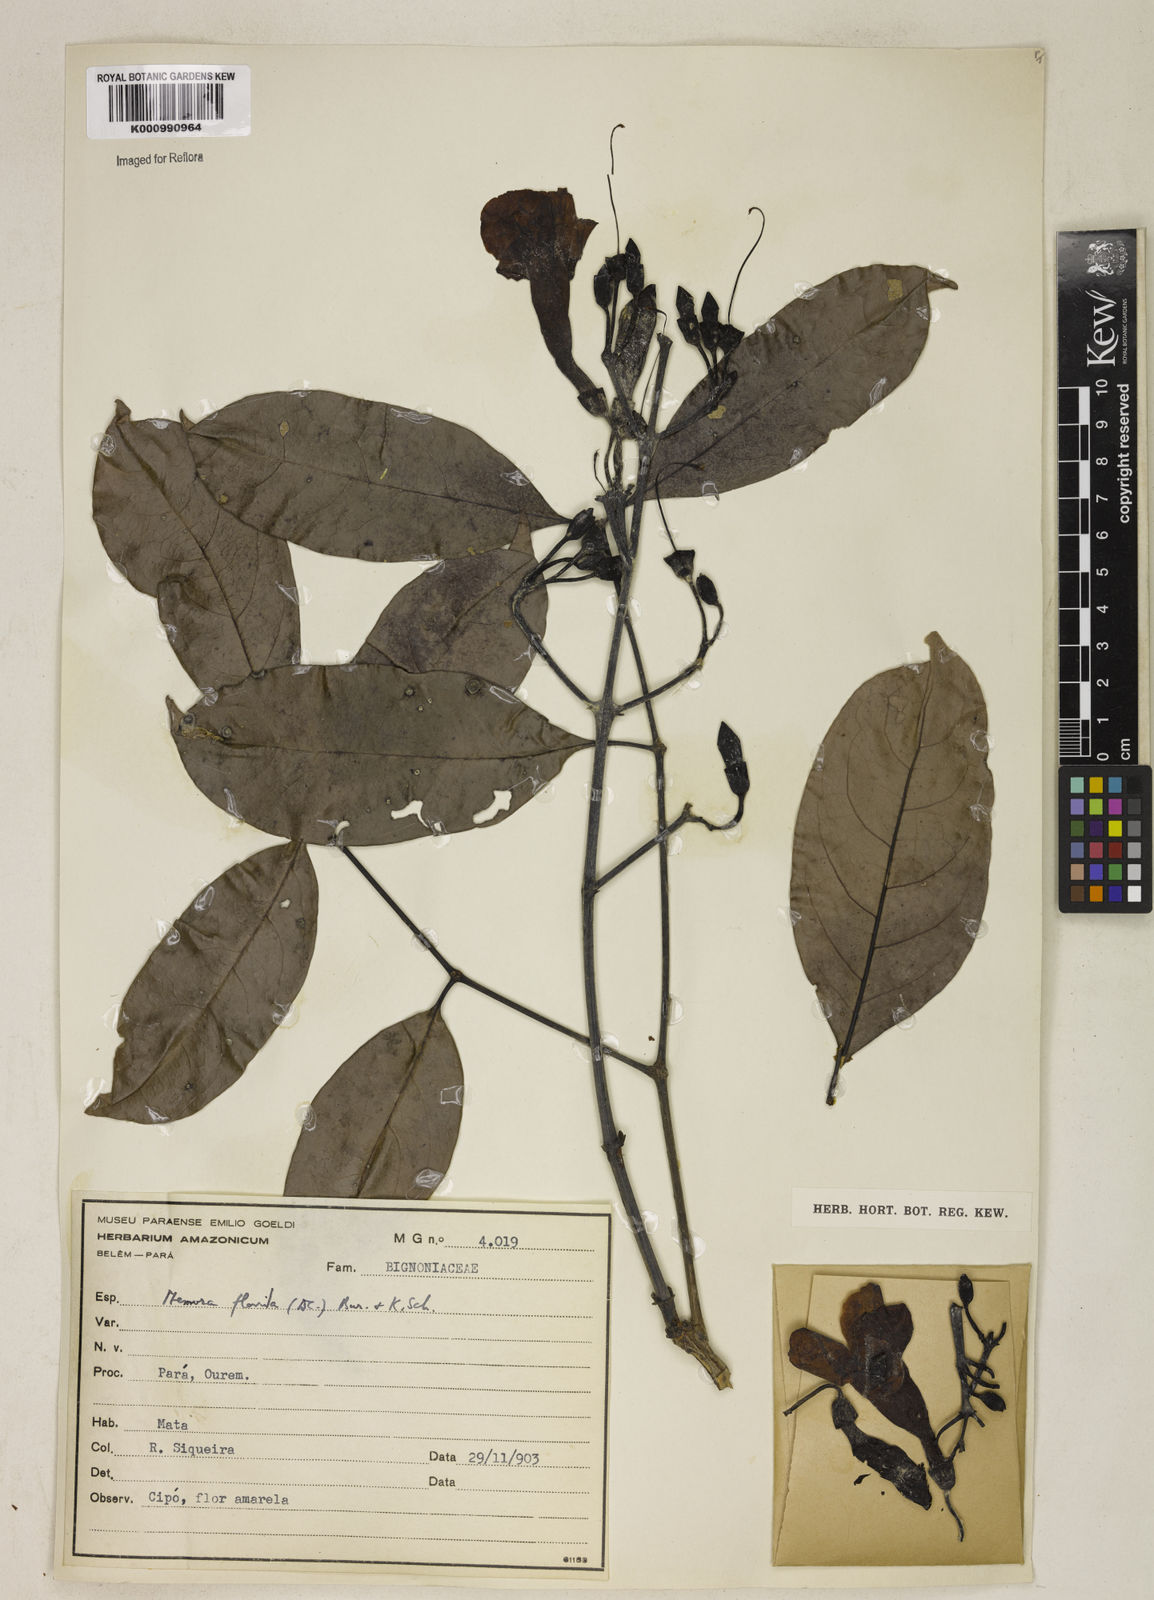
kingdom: Plantae
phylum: Tracheophyta
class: Magnoliopsida
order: Lamiales
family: Bignoniaceae
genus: Adenocalymma
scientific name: Adenocalymma neoflavidum
